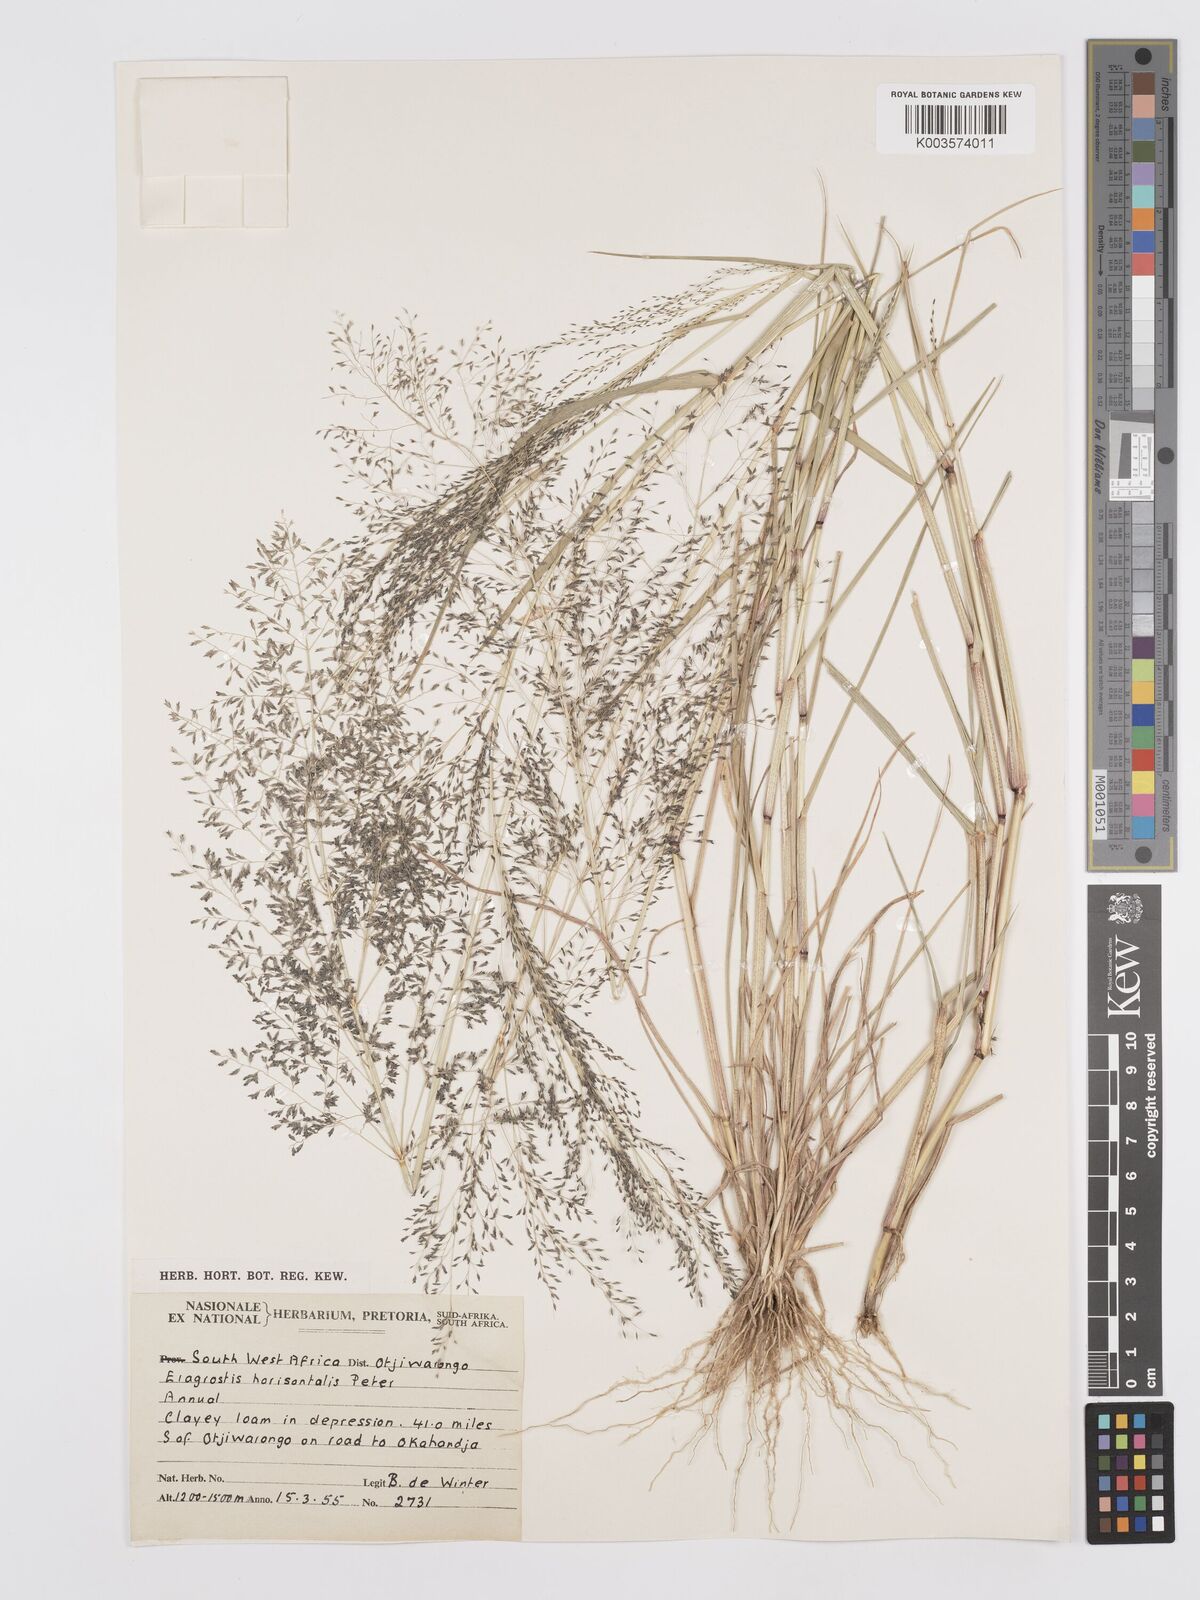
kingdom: Plantae
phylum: Tracheophyta
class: Liliopsida
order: Poales
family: Poaceae
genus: Eragrostis
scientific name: Eragrostis cylindriflora
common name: Cylinderflower lovegrass
